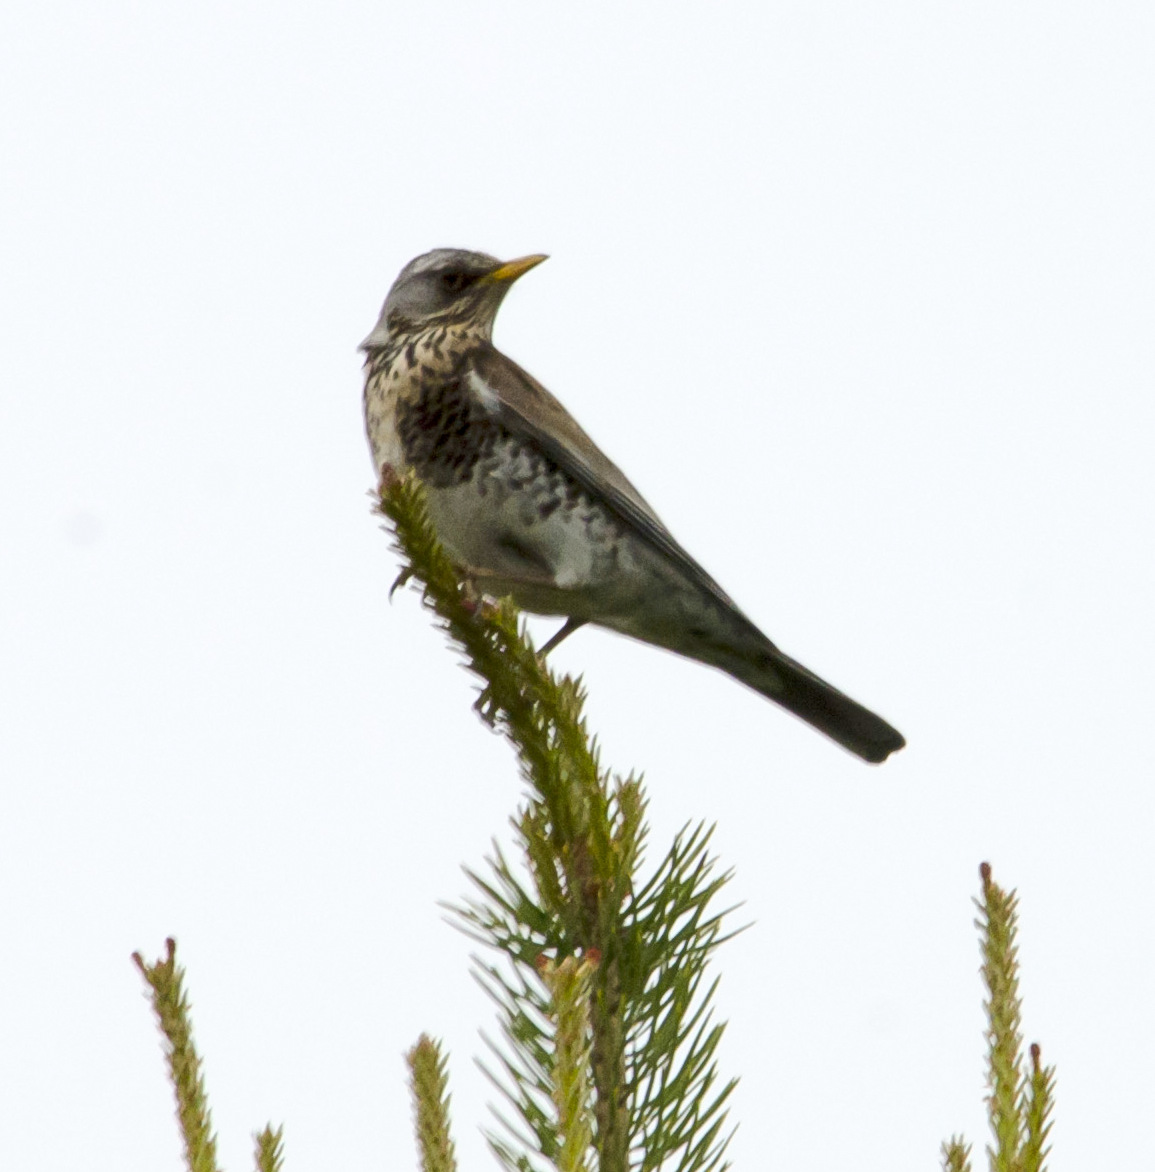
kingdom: Animalia
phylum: Chordata
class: Aves
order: Passeriformes
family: Turdidae
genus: Turdus
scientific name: Turdus pilaris
